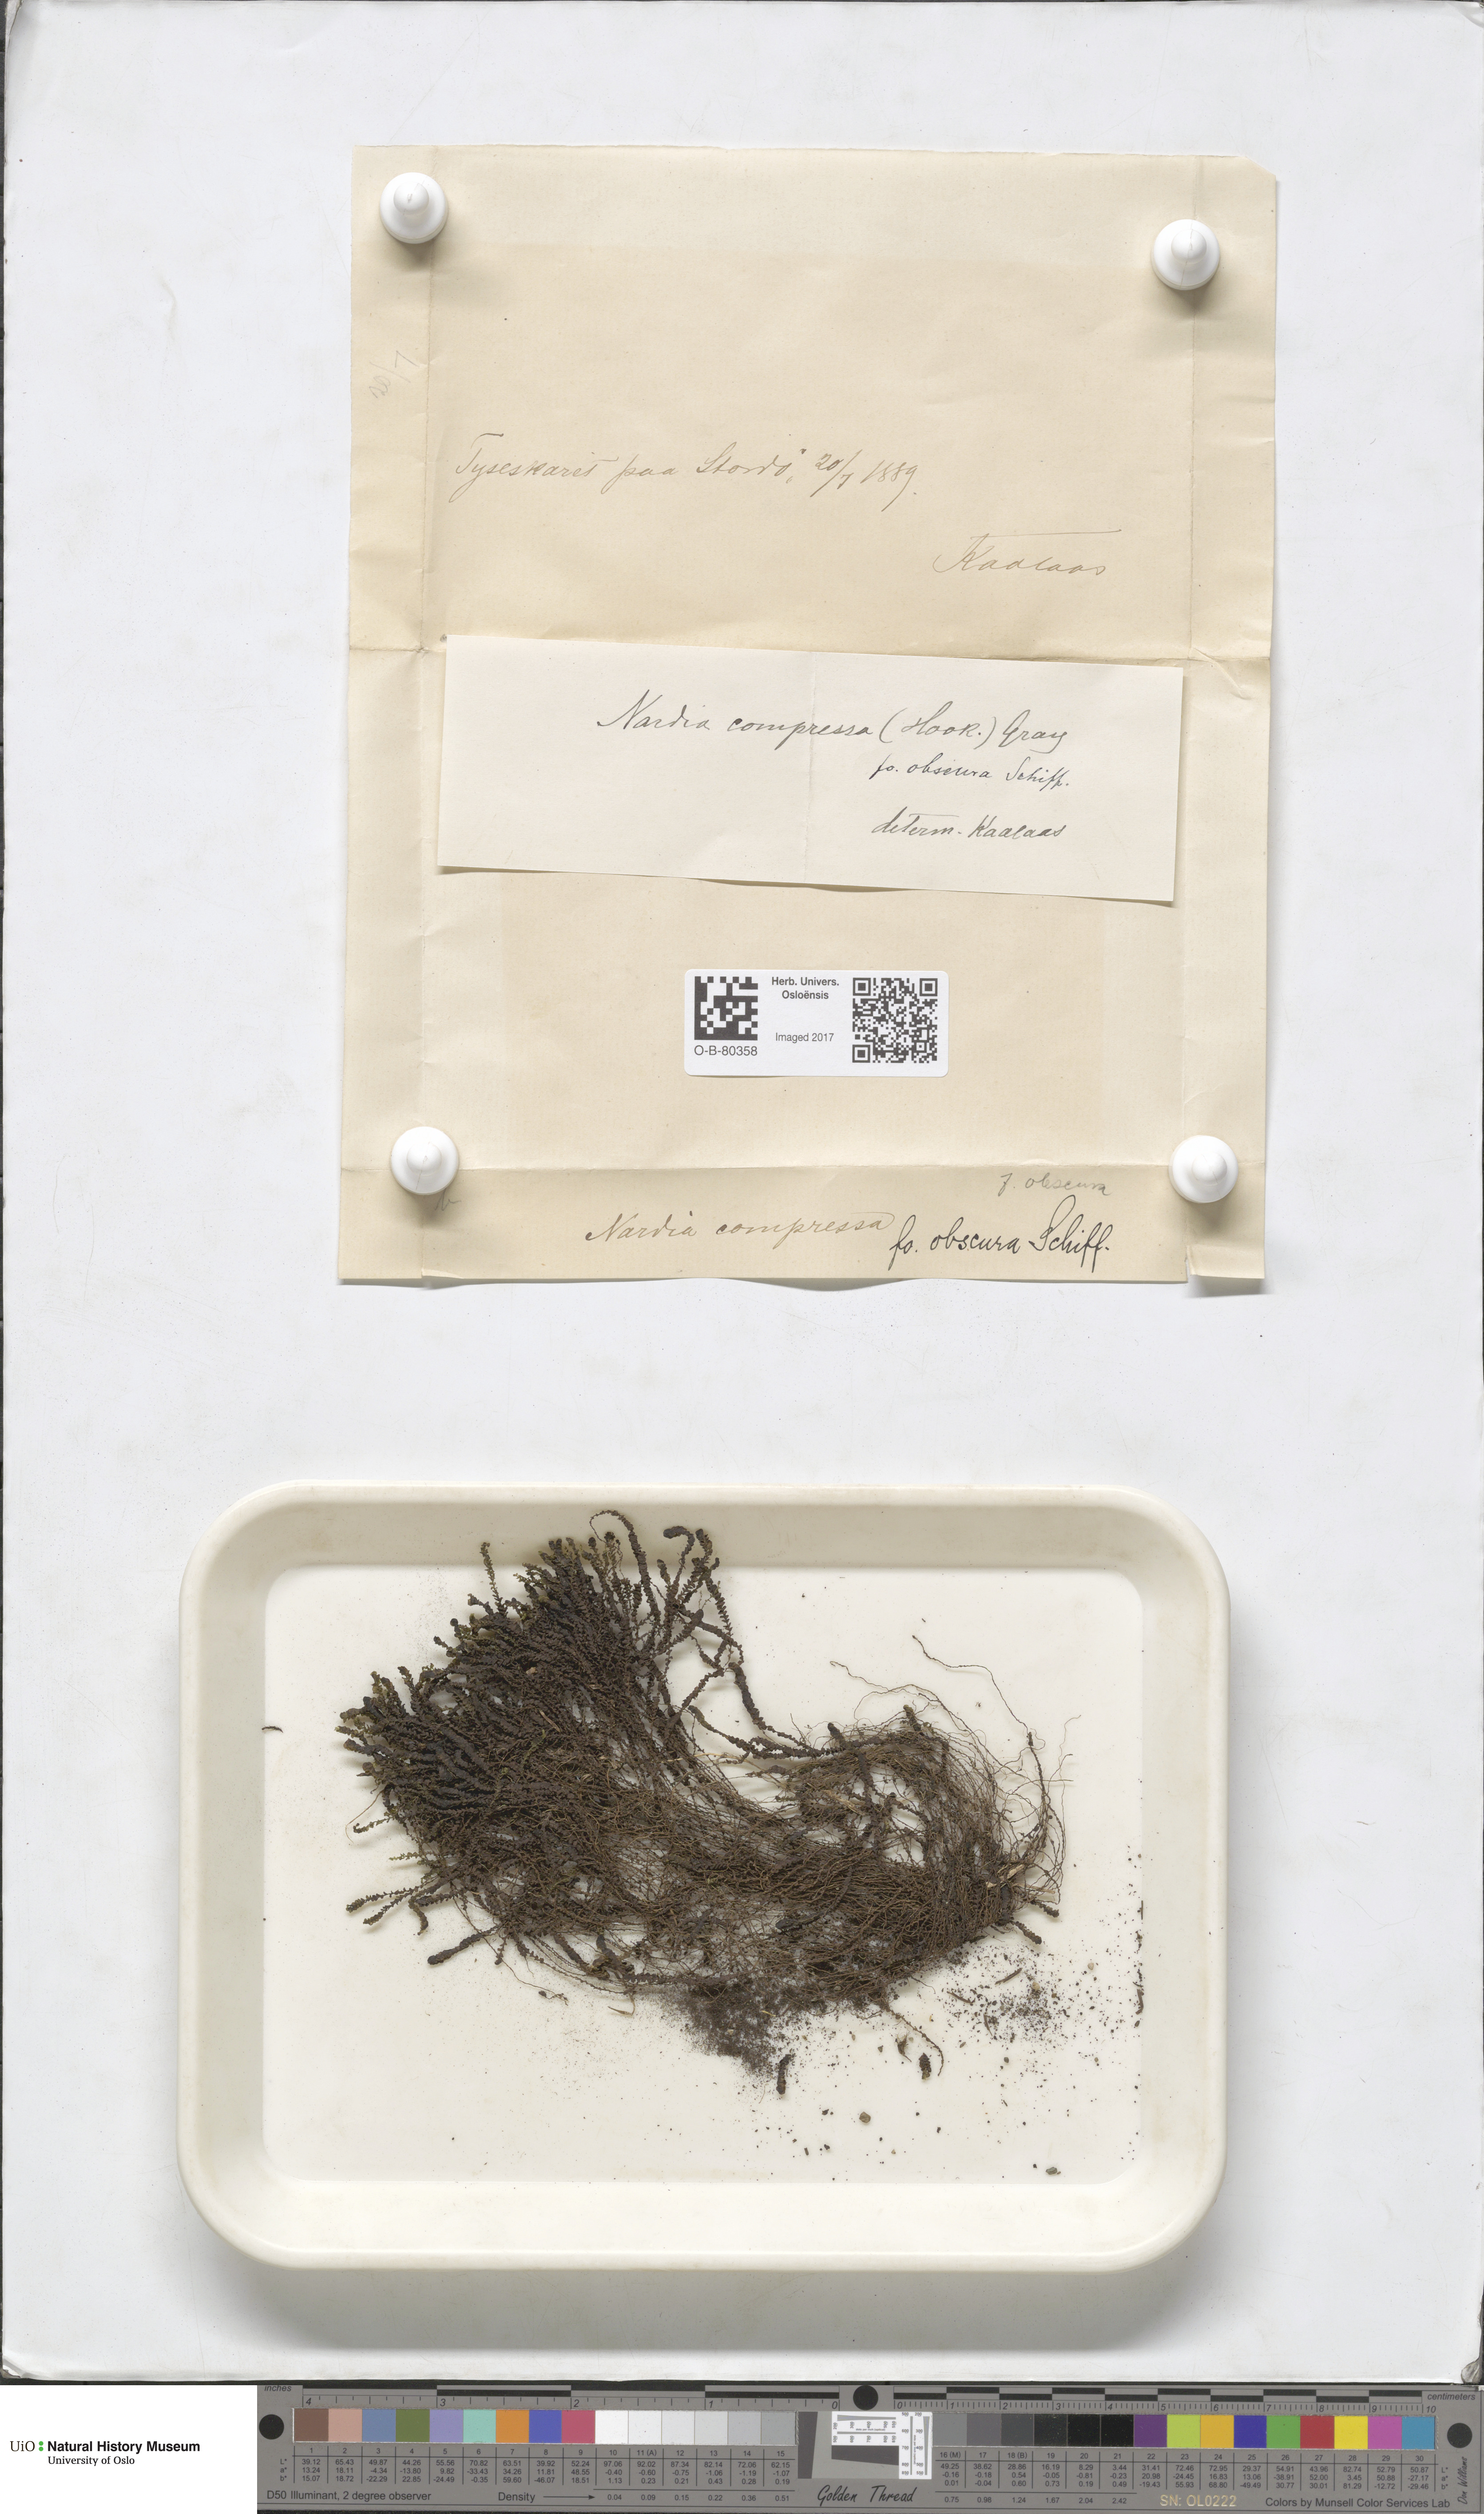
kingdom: Plantae
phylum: Marchantiophyta
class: Jungermanniopsida
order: Jungermanniales
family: Gymnomitriaceae
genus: Nardia
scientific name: Nardia compressa
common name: Compressed flapwort
